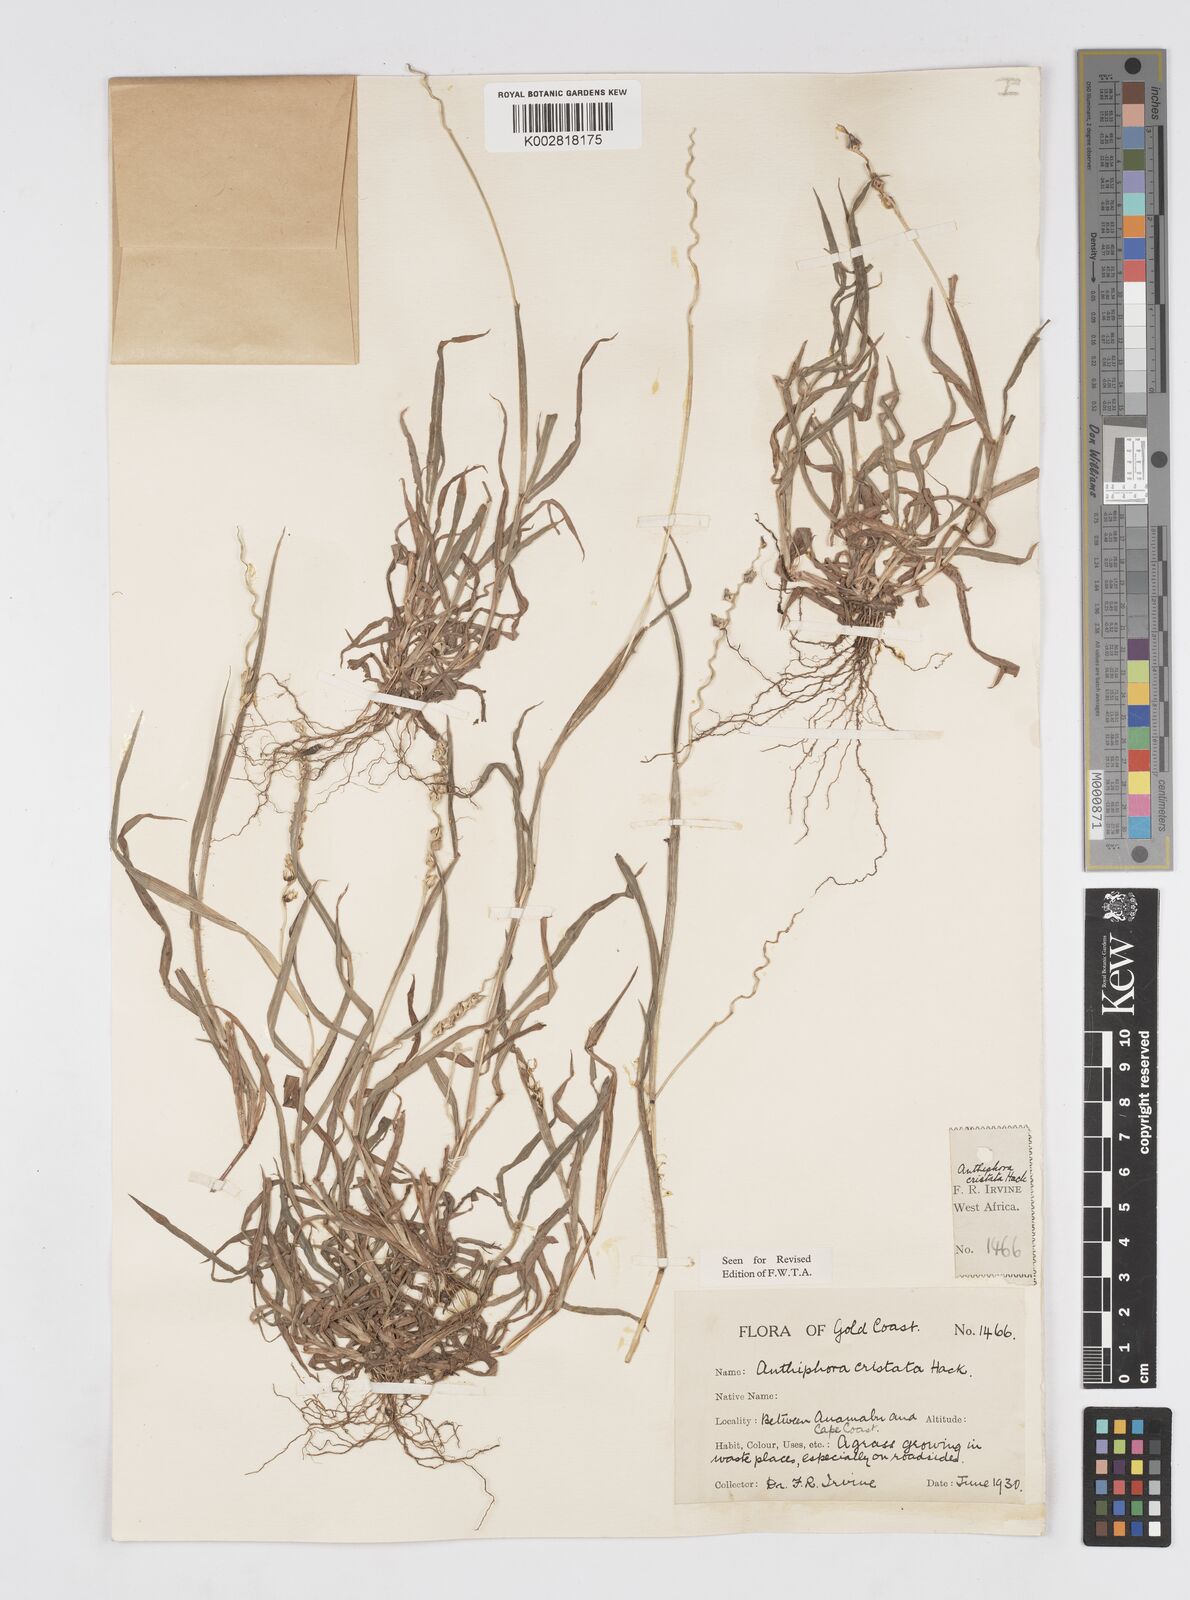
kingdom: Plantae
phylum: Tracheophyta
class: Liliopsida
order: Poales
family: Poaceae
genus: Anthephora
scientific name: Anthephora cristata
